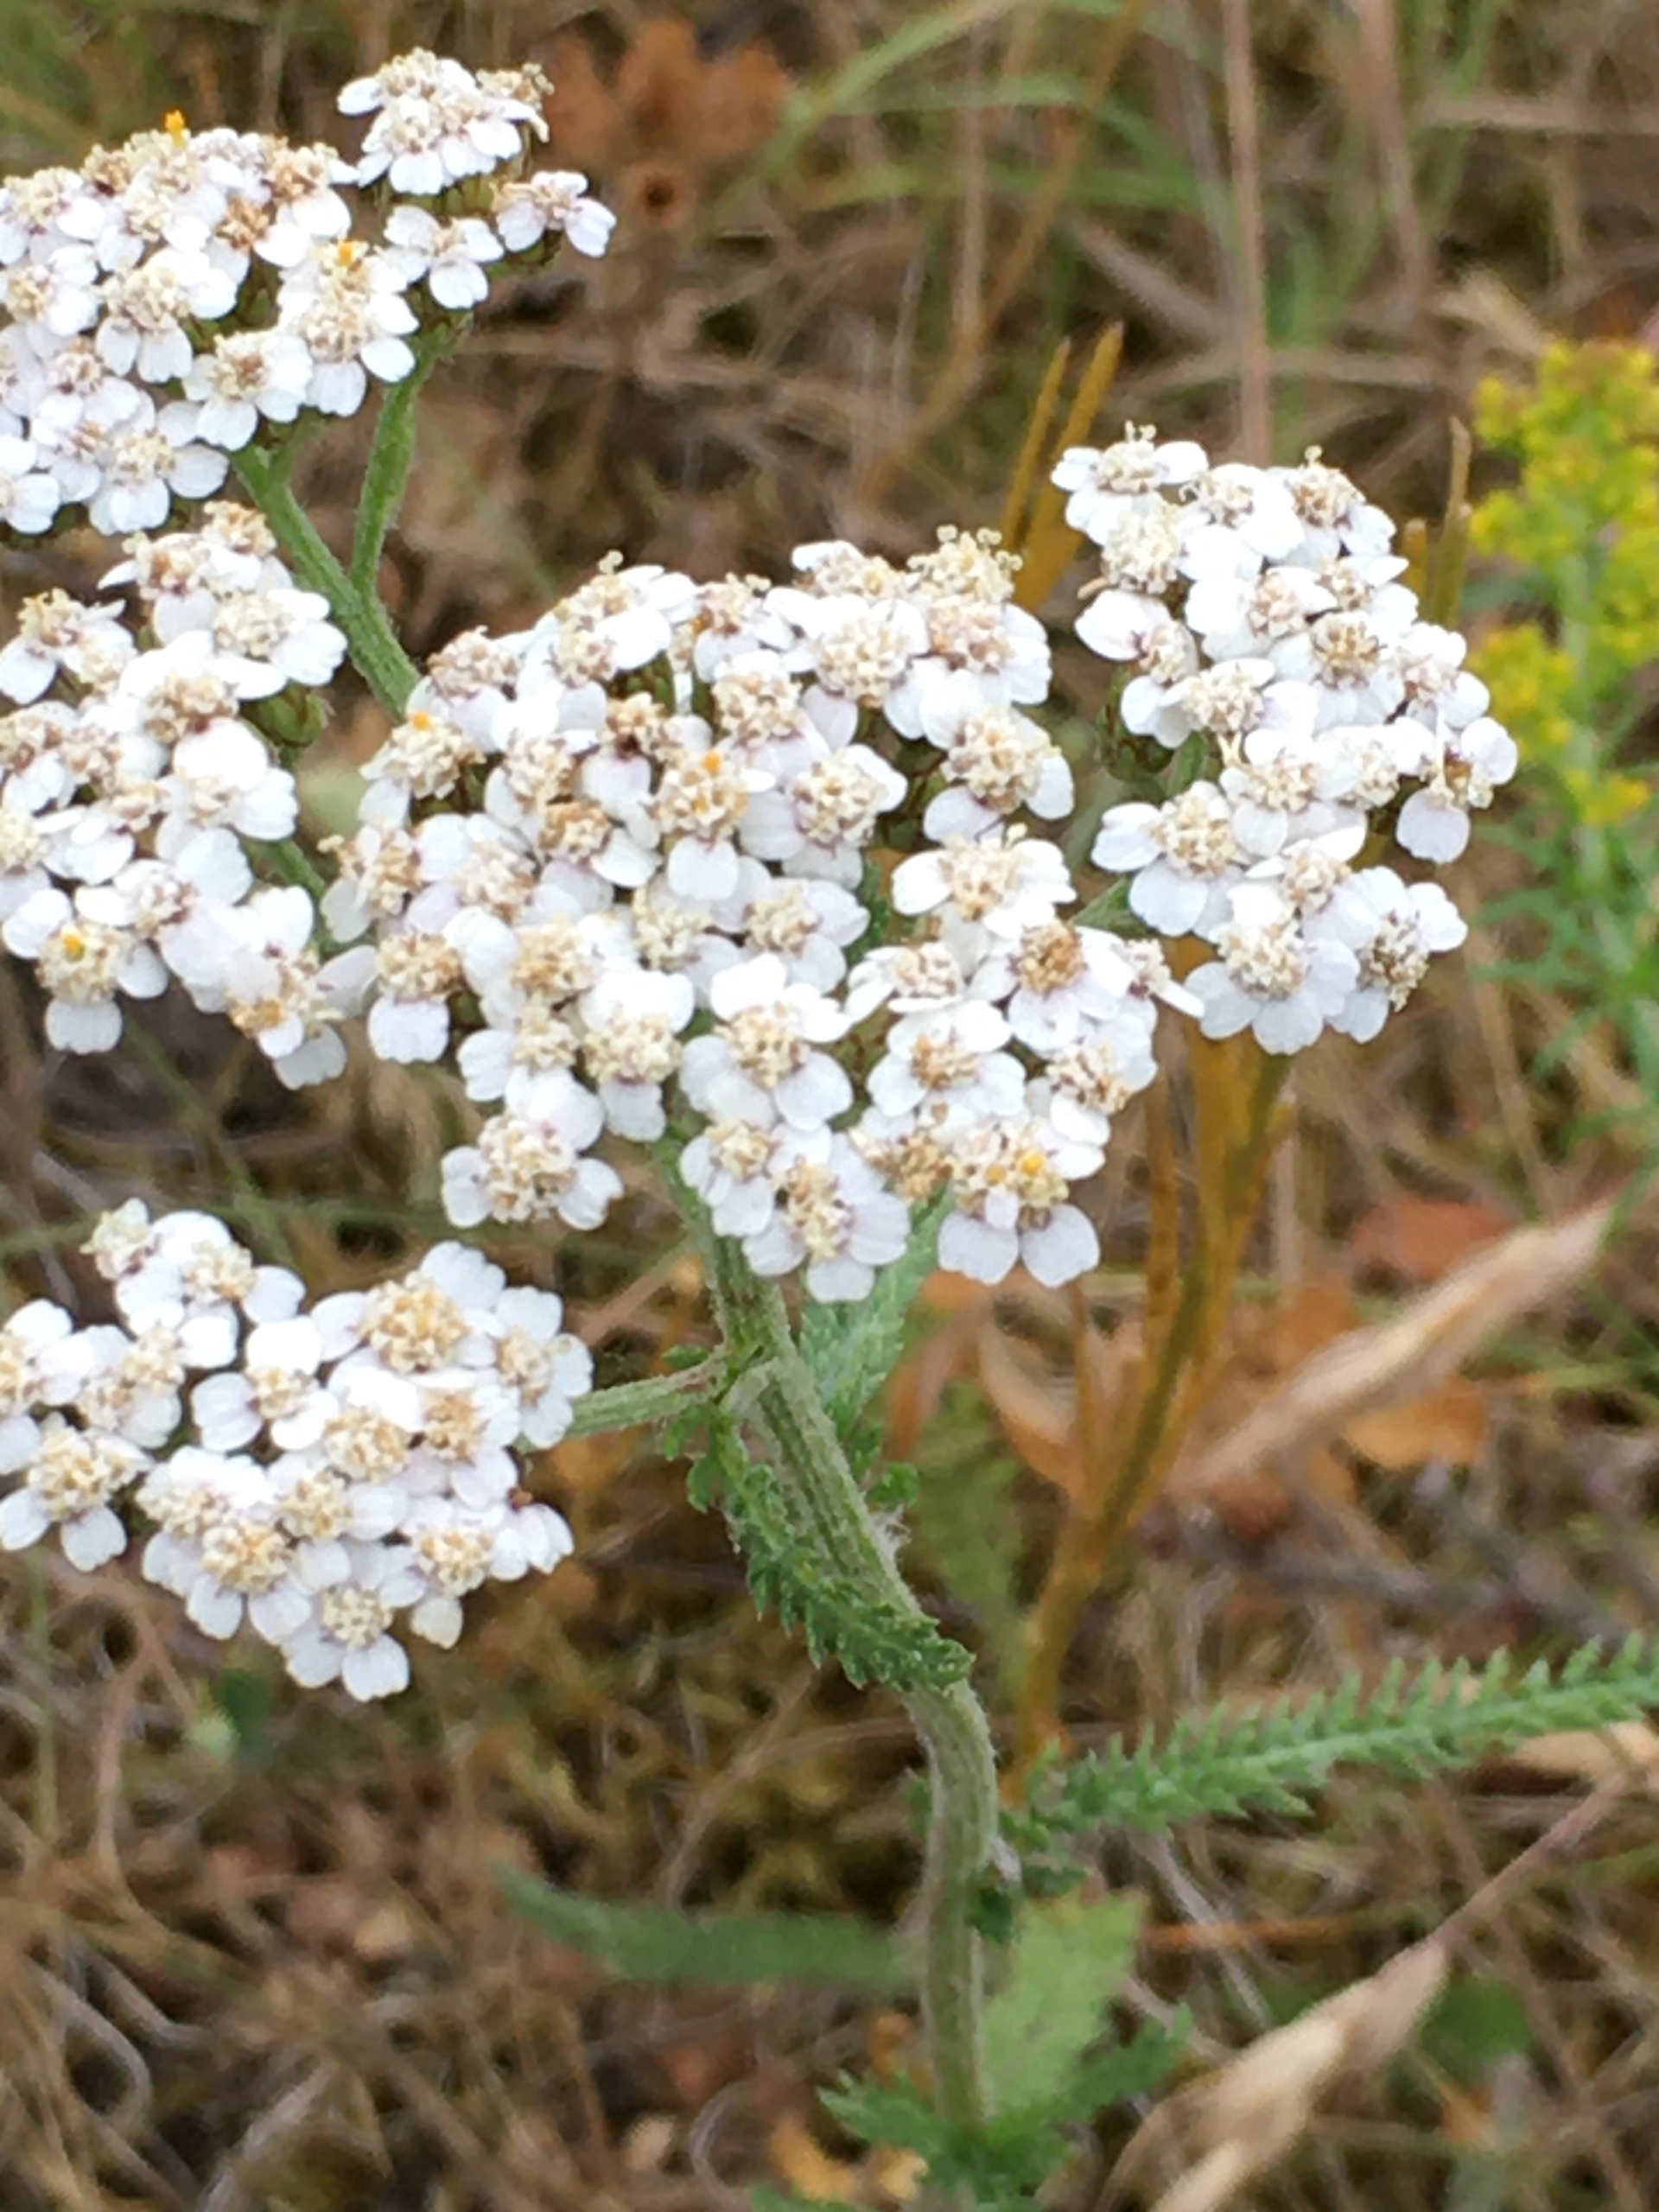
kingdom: Plantae
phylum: Tracheophyta
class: Magnoliopsida
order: Asterales
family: Asteraceae
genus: Achillea
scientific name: Achillea millefolium
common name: Almindelig røllike
